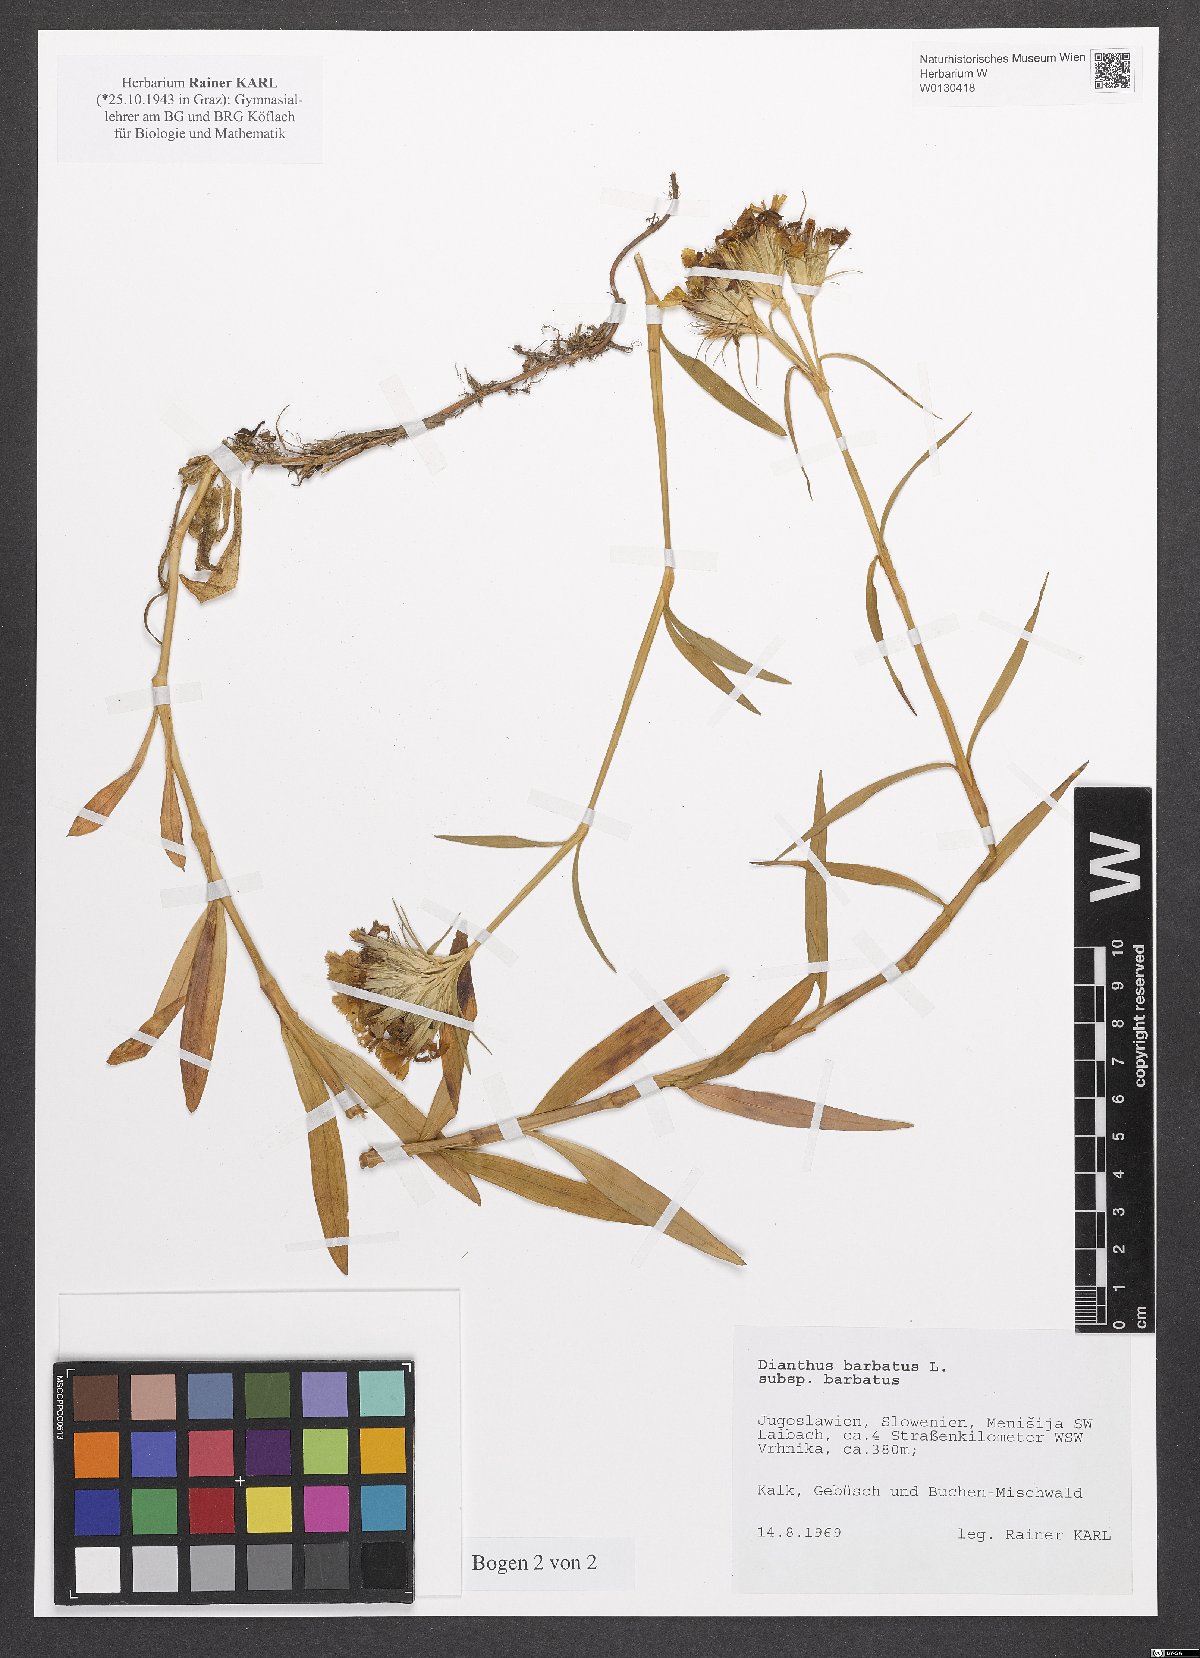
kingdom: Plantae
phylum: Tracheophyta
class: Magnoliopsida
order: Caryophyllales
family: Caryophyllaceae
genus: Dianthus
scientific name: Dianthus barbatus
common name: Sweet-william
